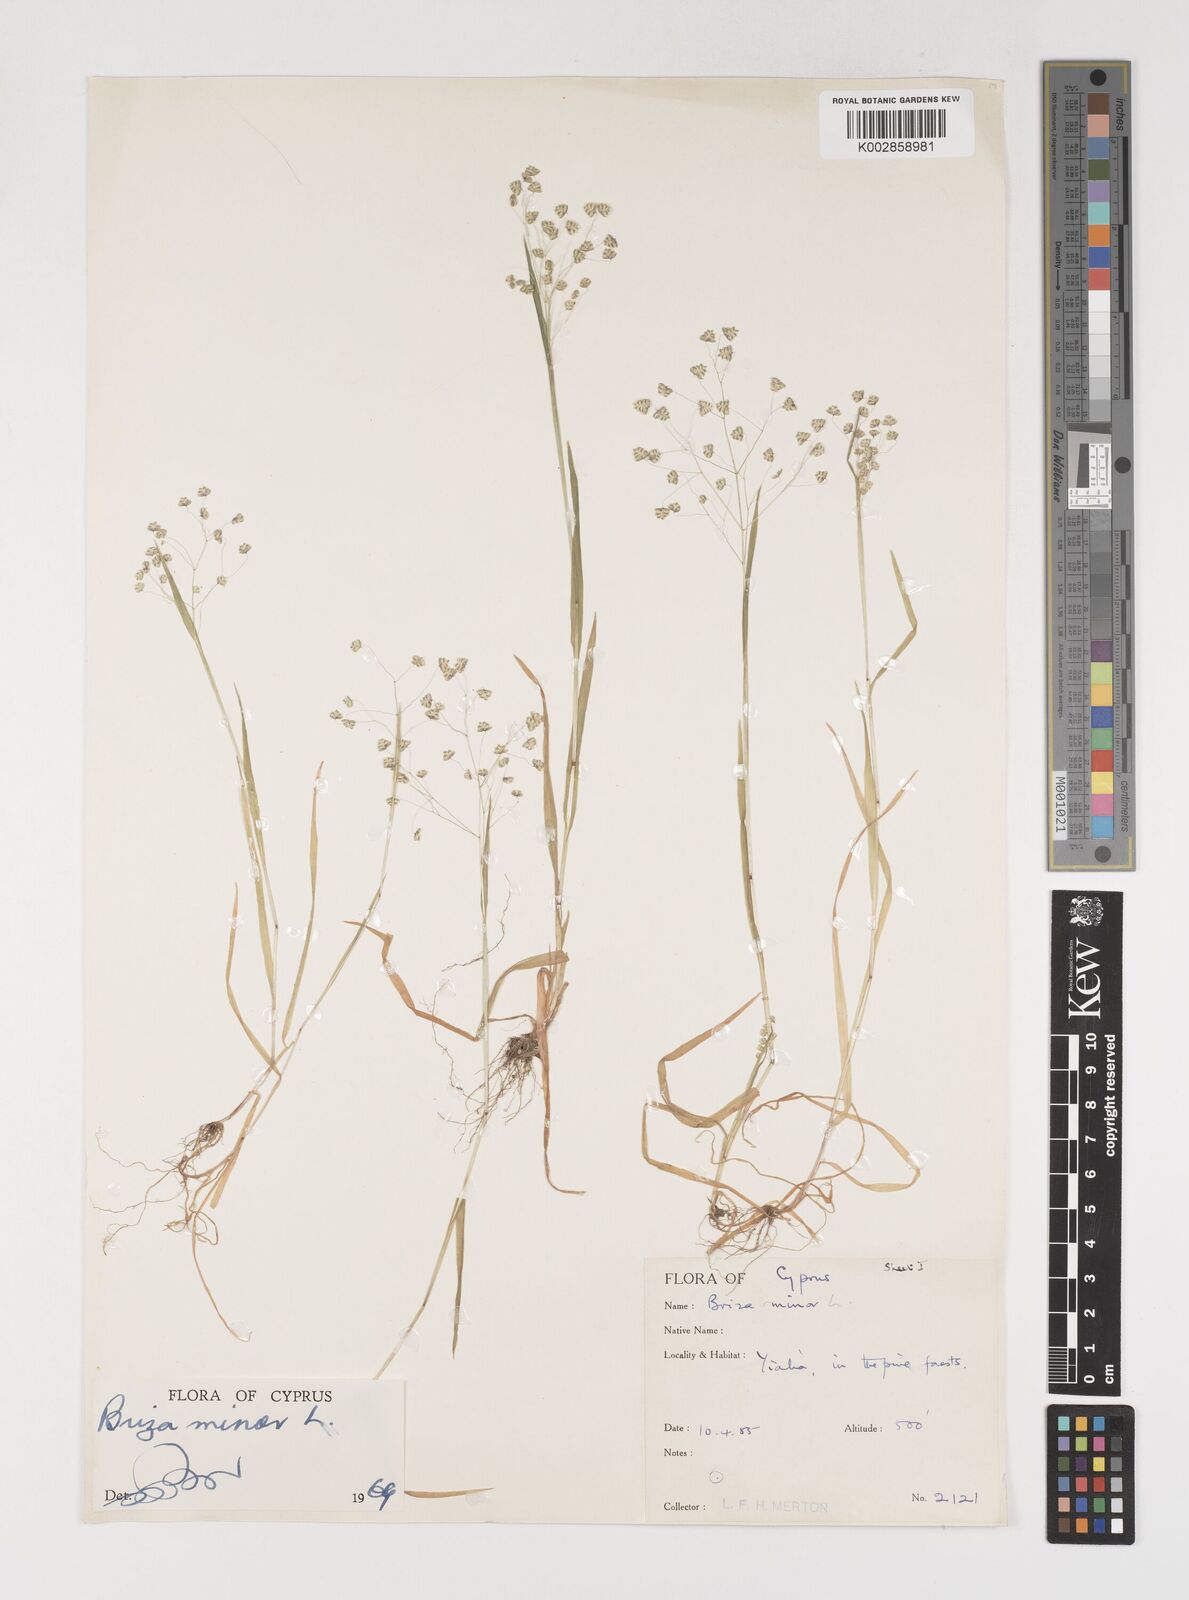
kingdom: Plantae
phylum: Tracheophyta
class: Liliopsida
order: Poales
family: Poaceae
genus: Briza
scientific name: Briza minor
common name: Lesser quaking-grass
